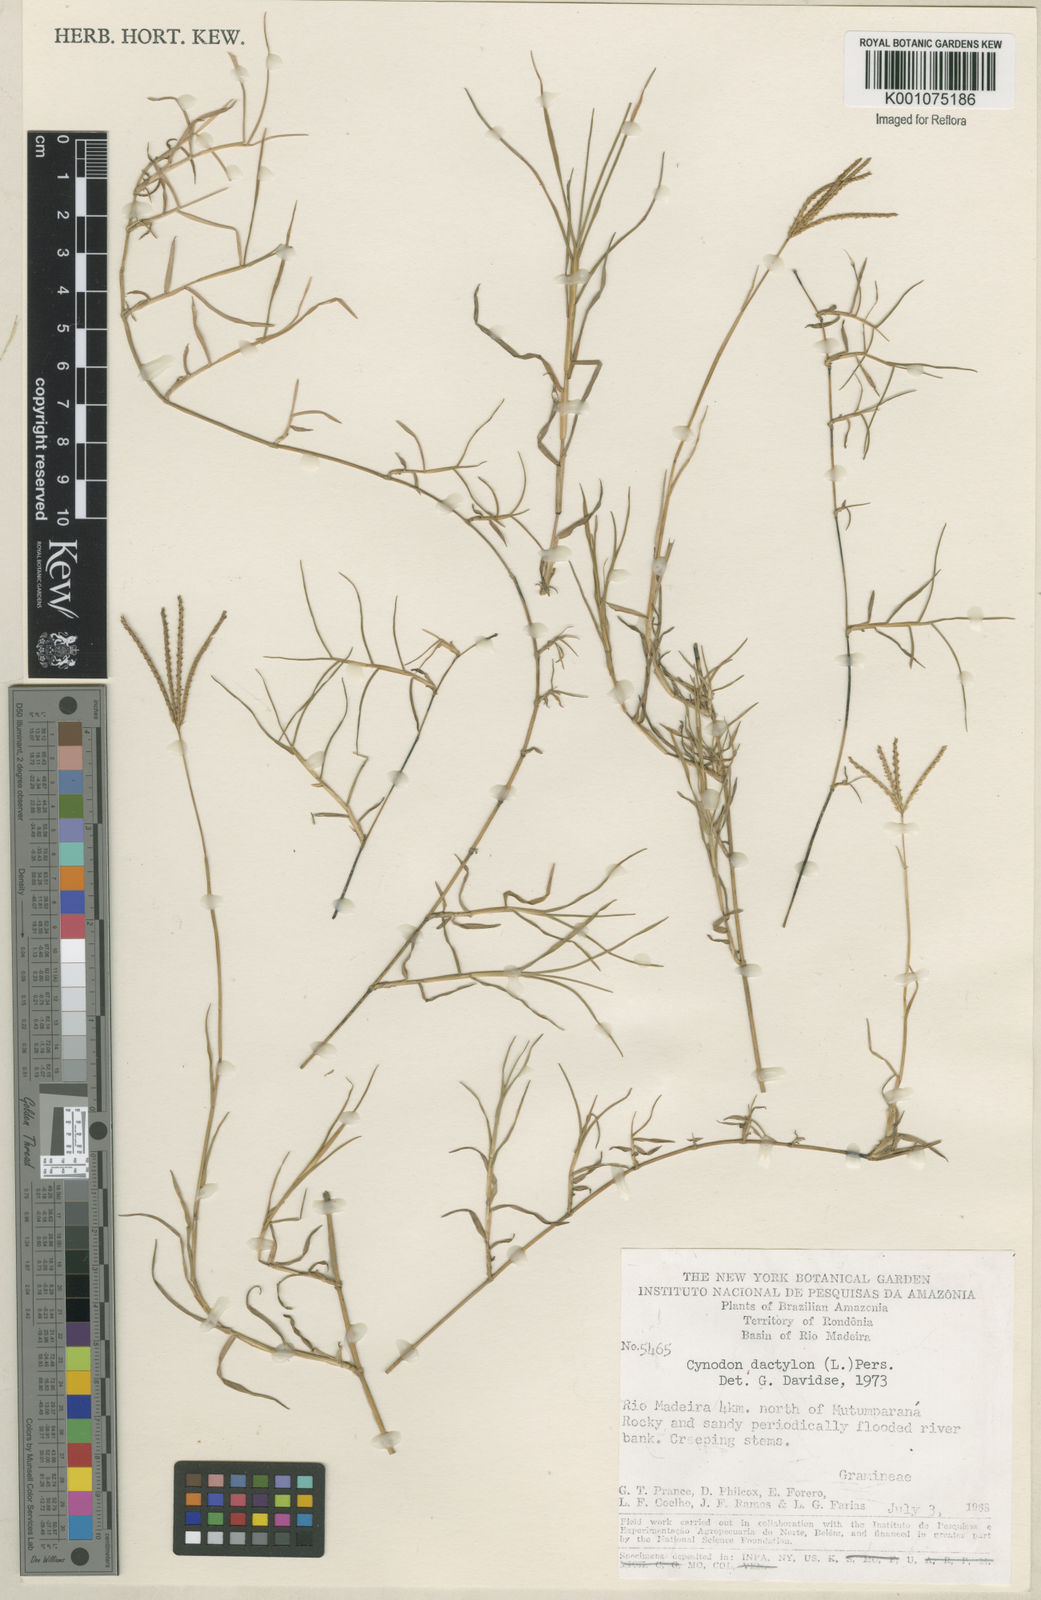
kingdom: Plantae
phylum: Tracheophyta
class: Liliopsida
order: Poales
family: Poaceae
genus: Cynodon
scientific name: Cynodon dactylon
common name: Bermuda grass
